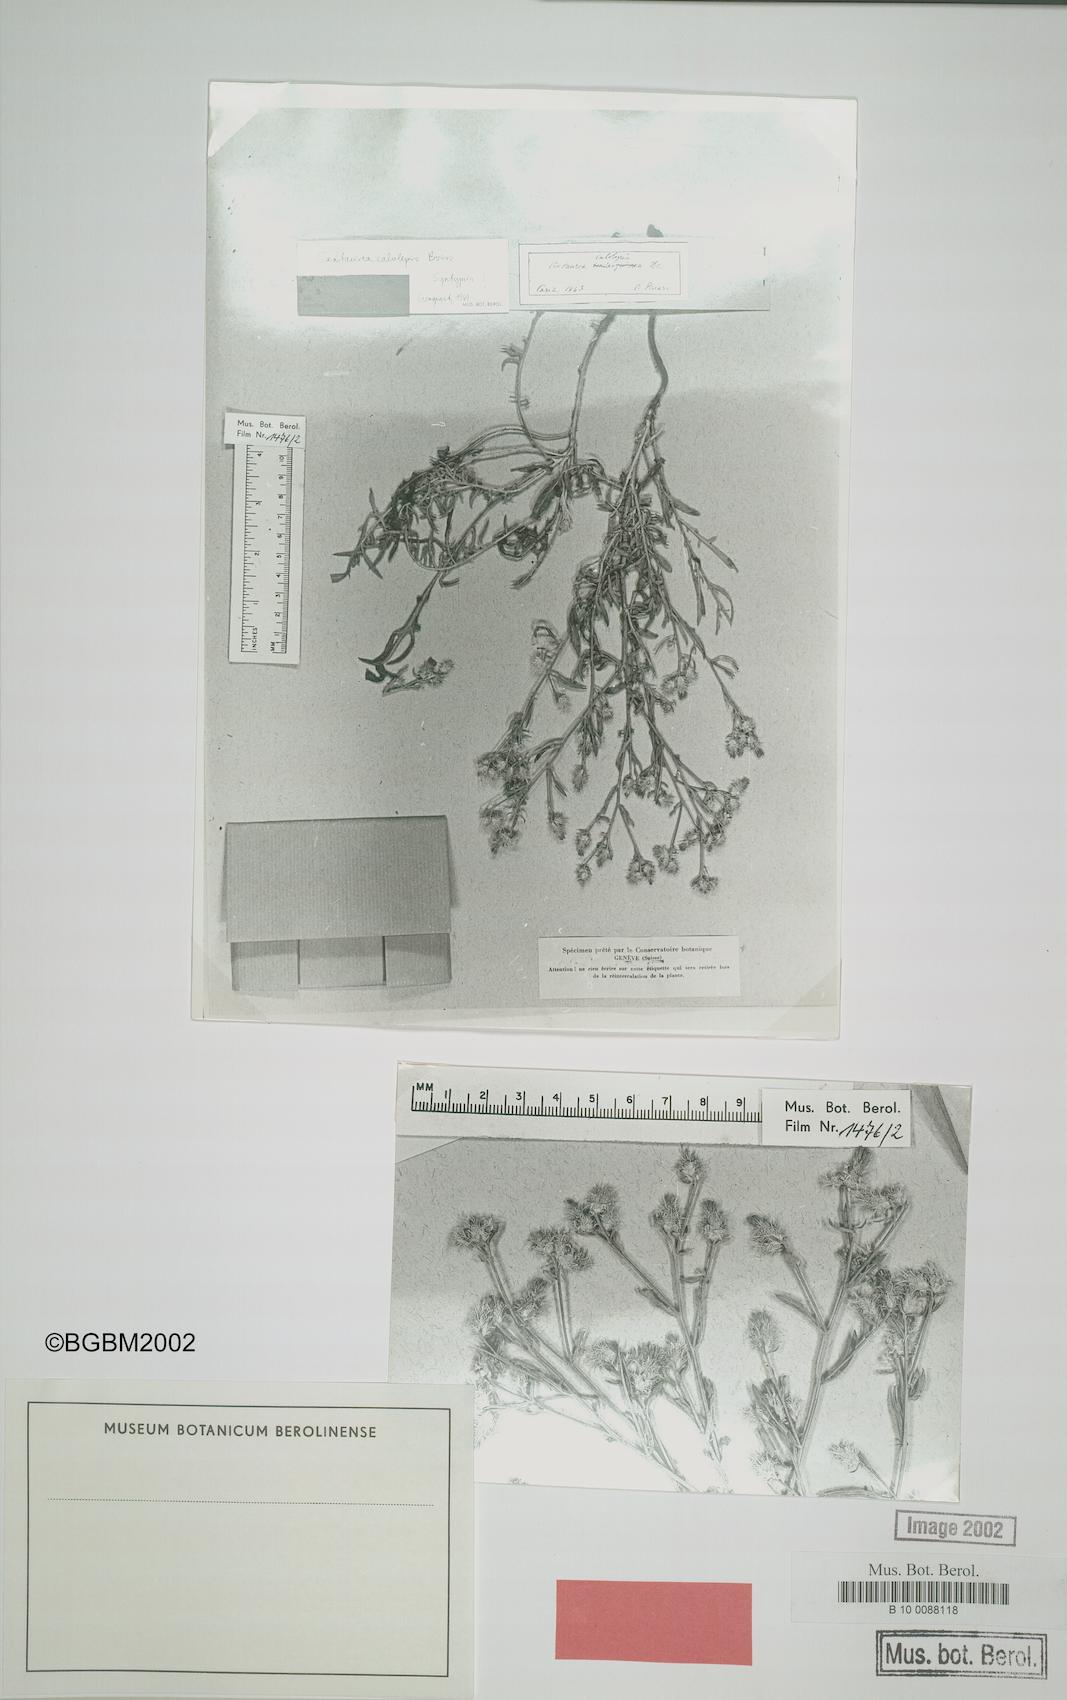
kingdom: Plantae
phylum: Tracheophyta
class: Magnoliopsida
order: Asterales
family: Asteraceae
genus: Centaurea
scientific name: Centaurea calolepis
